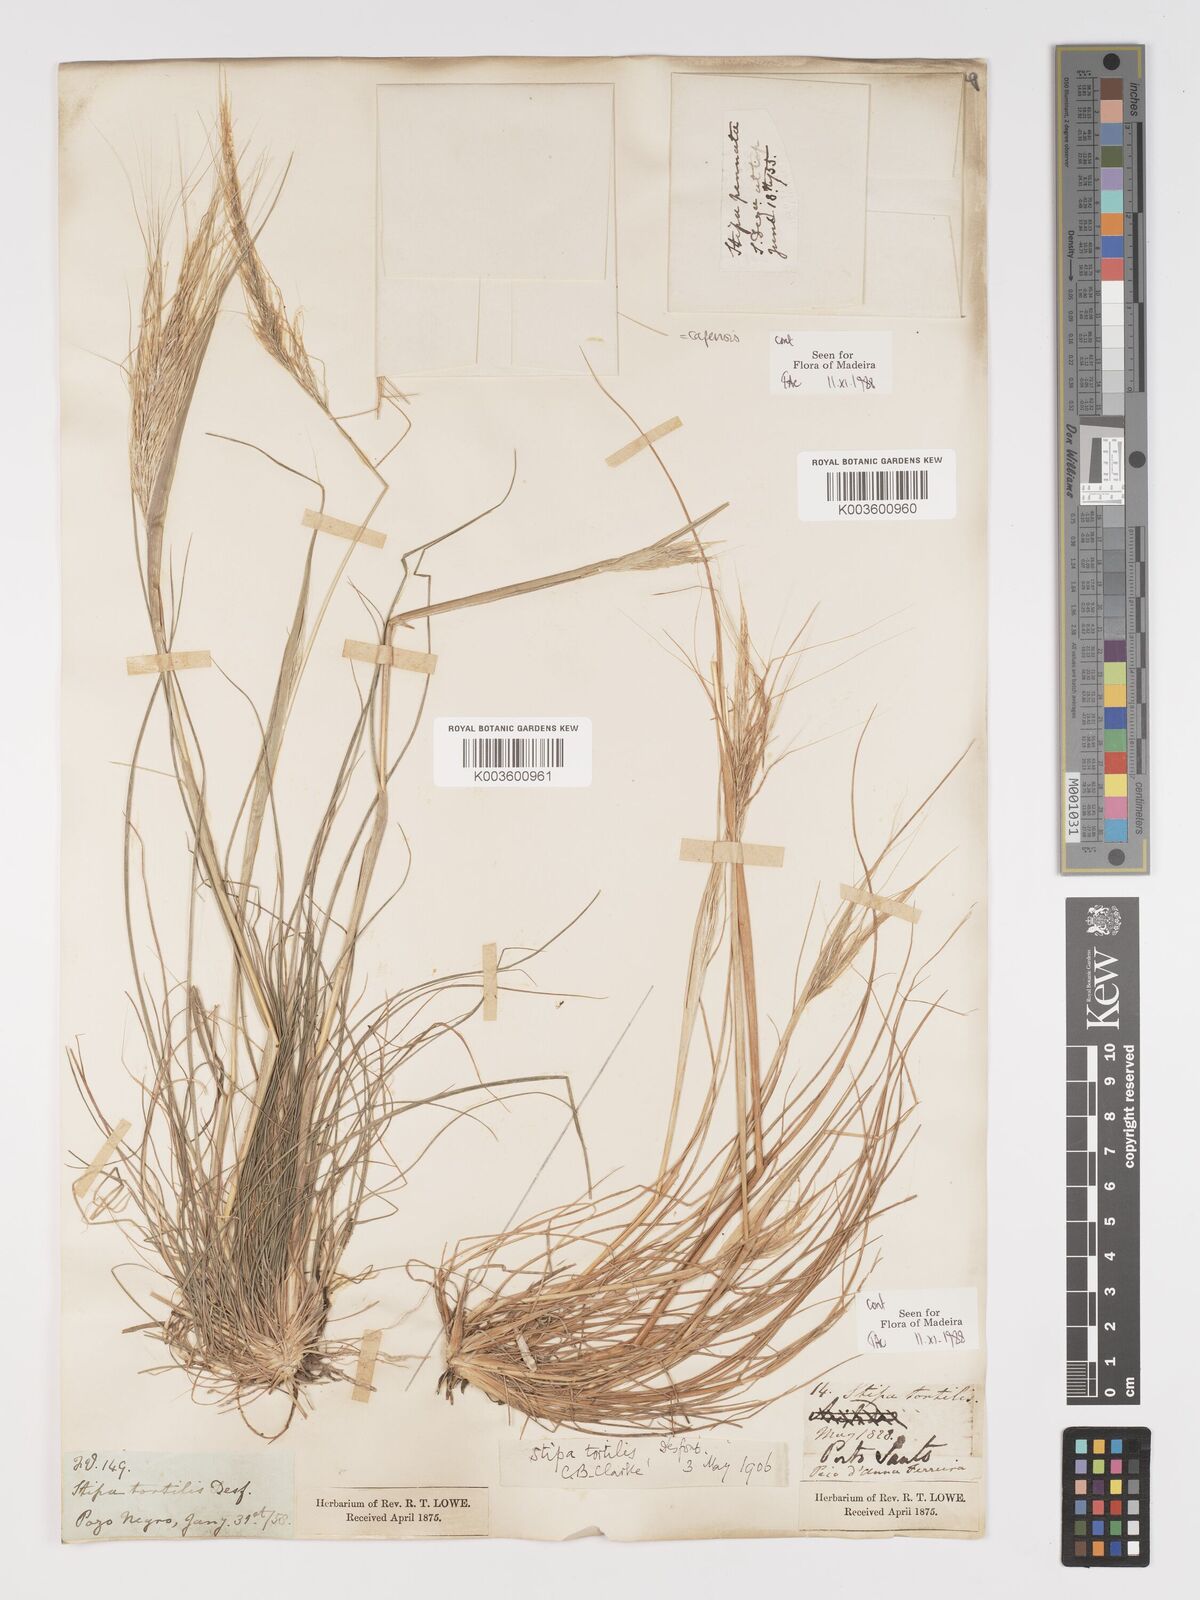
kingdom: Plantae
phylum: Tracheophyta
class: Liliopsida
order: Poales
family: Poaceae
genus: Stipellula
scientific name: Stipellula capensis
